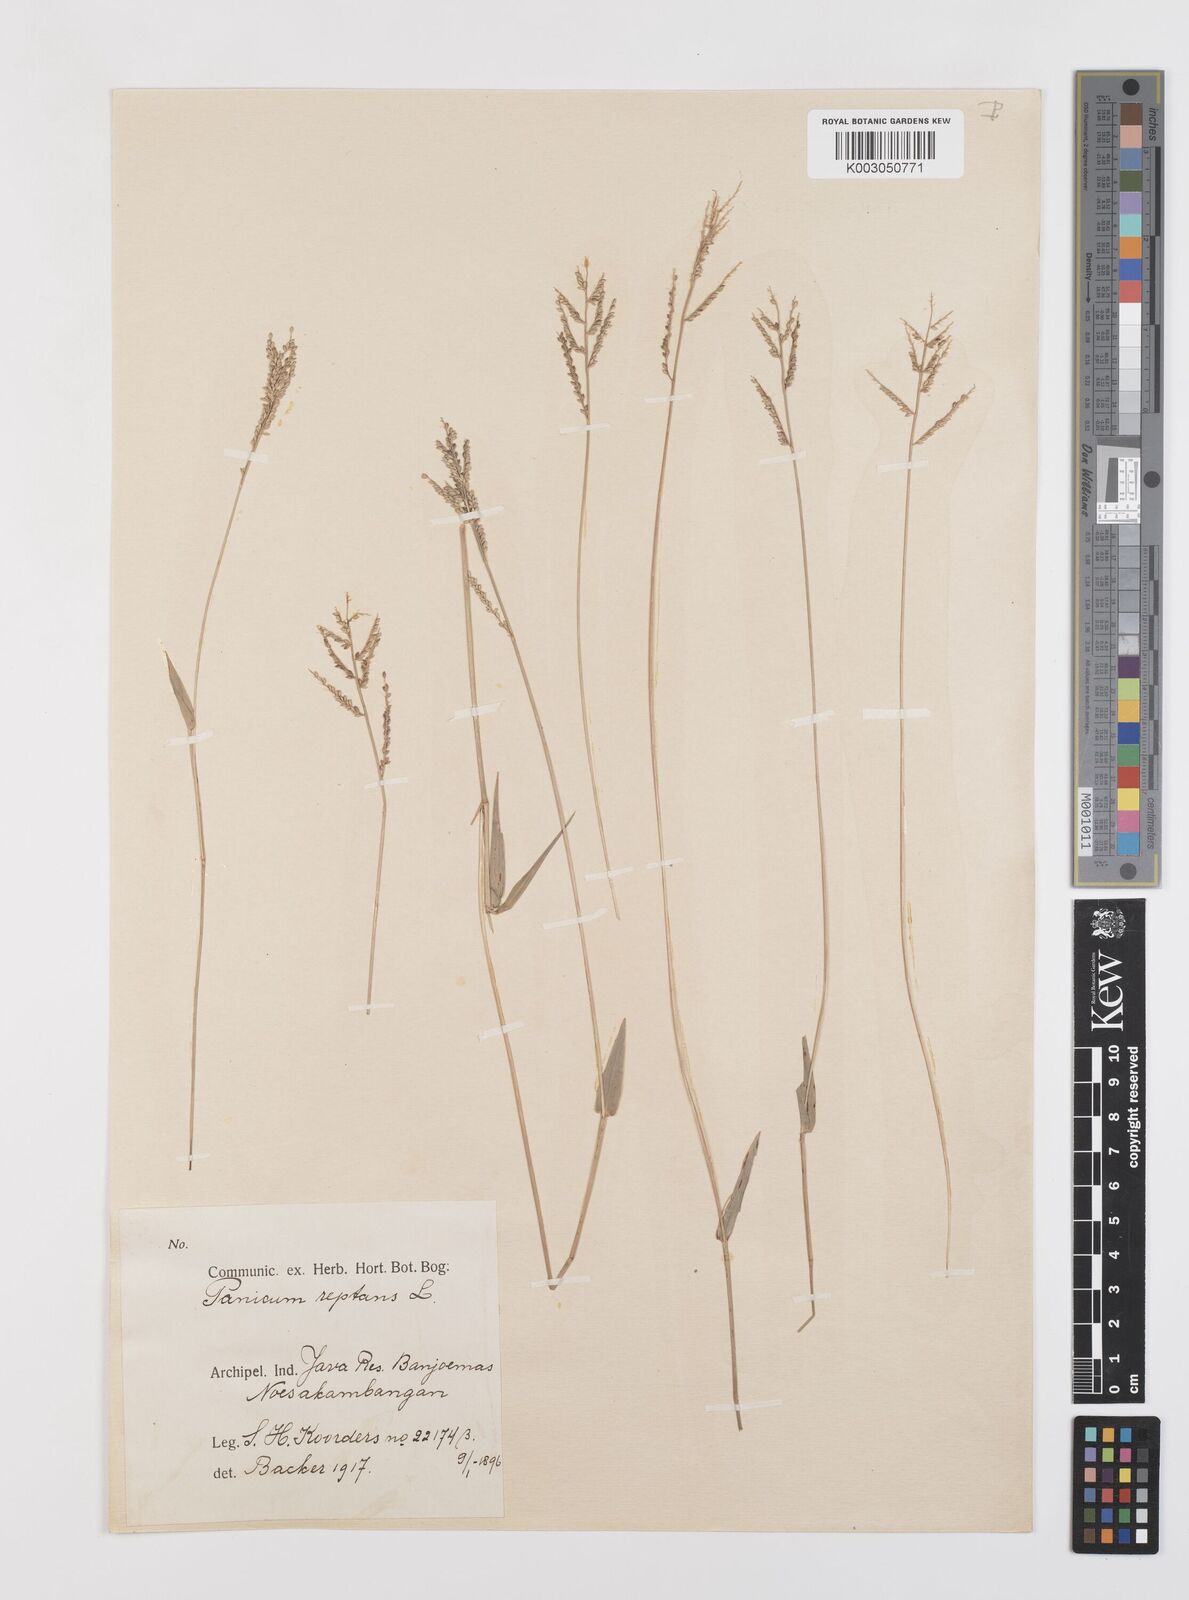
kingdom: Plantae
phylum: Tracheophyta
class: Liliopsida
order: Poales
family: Poaceae
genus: Urochloa
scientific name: Urochloa reptans
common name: Sprawling signalgrass
